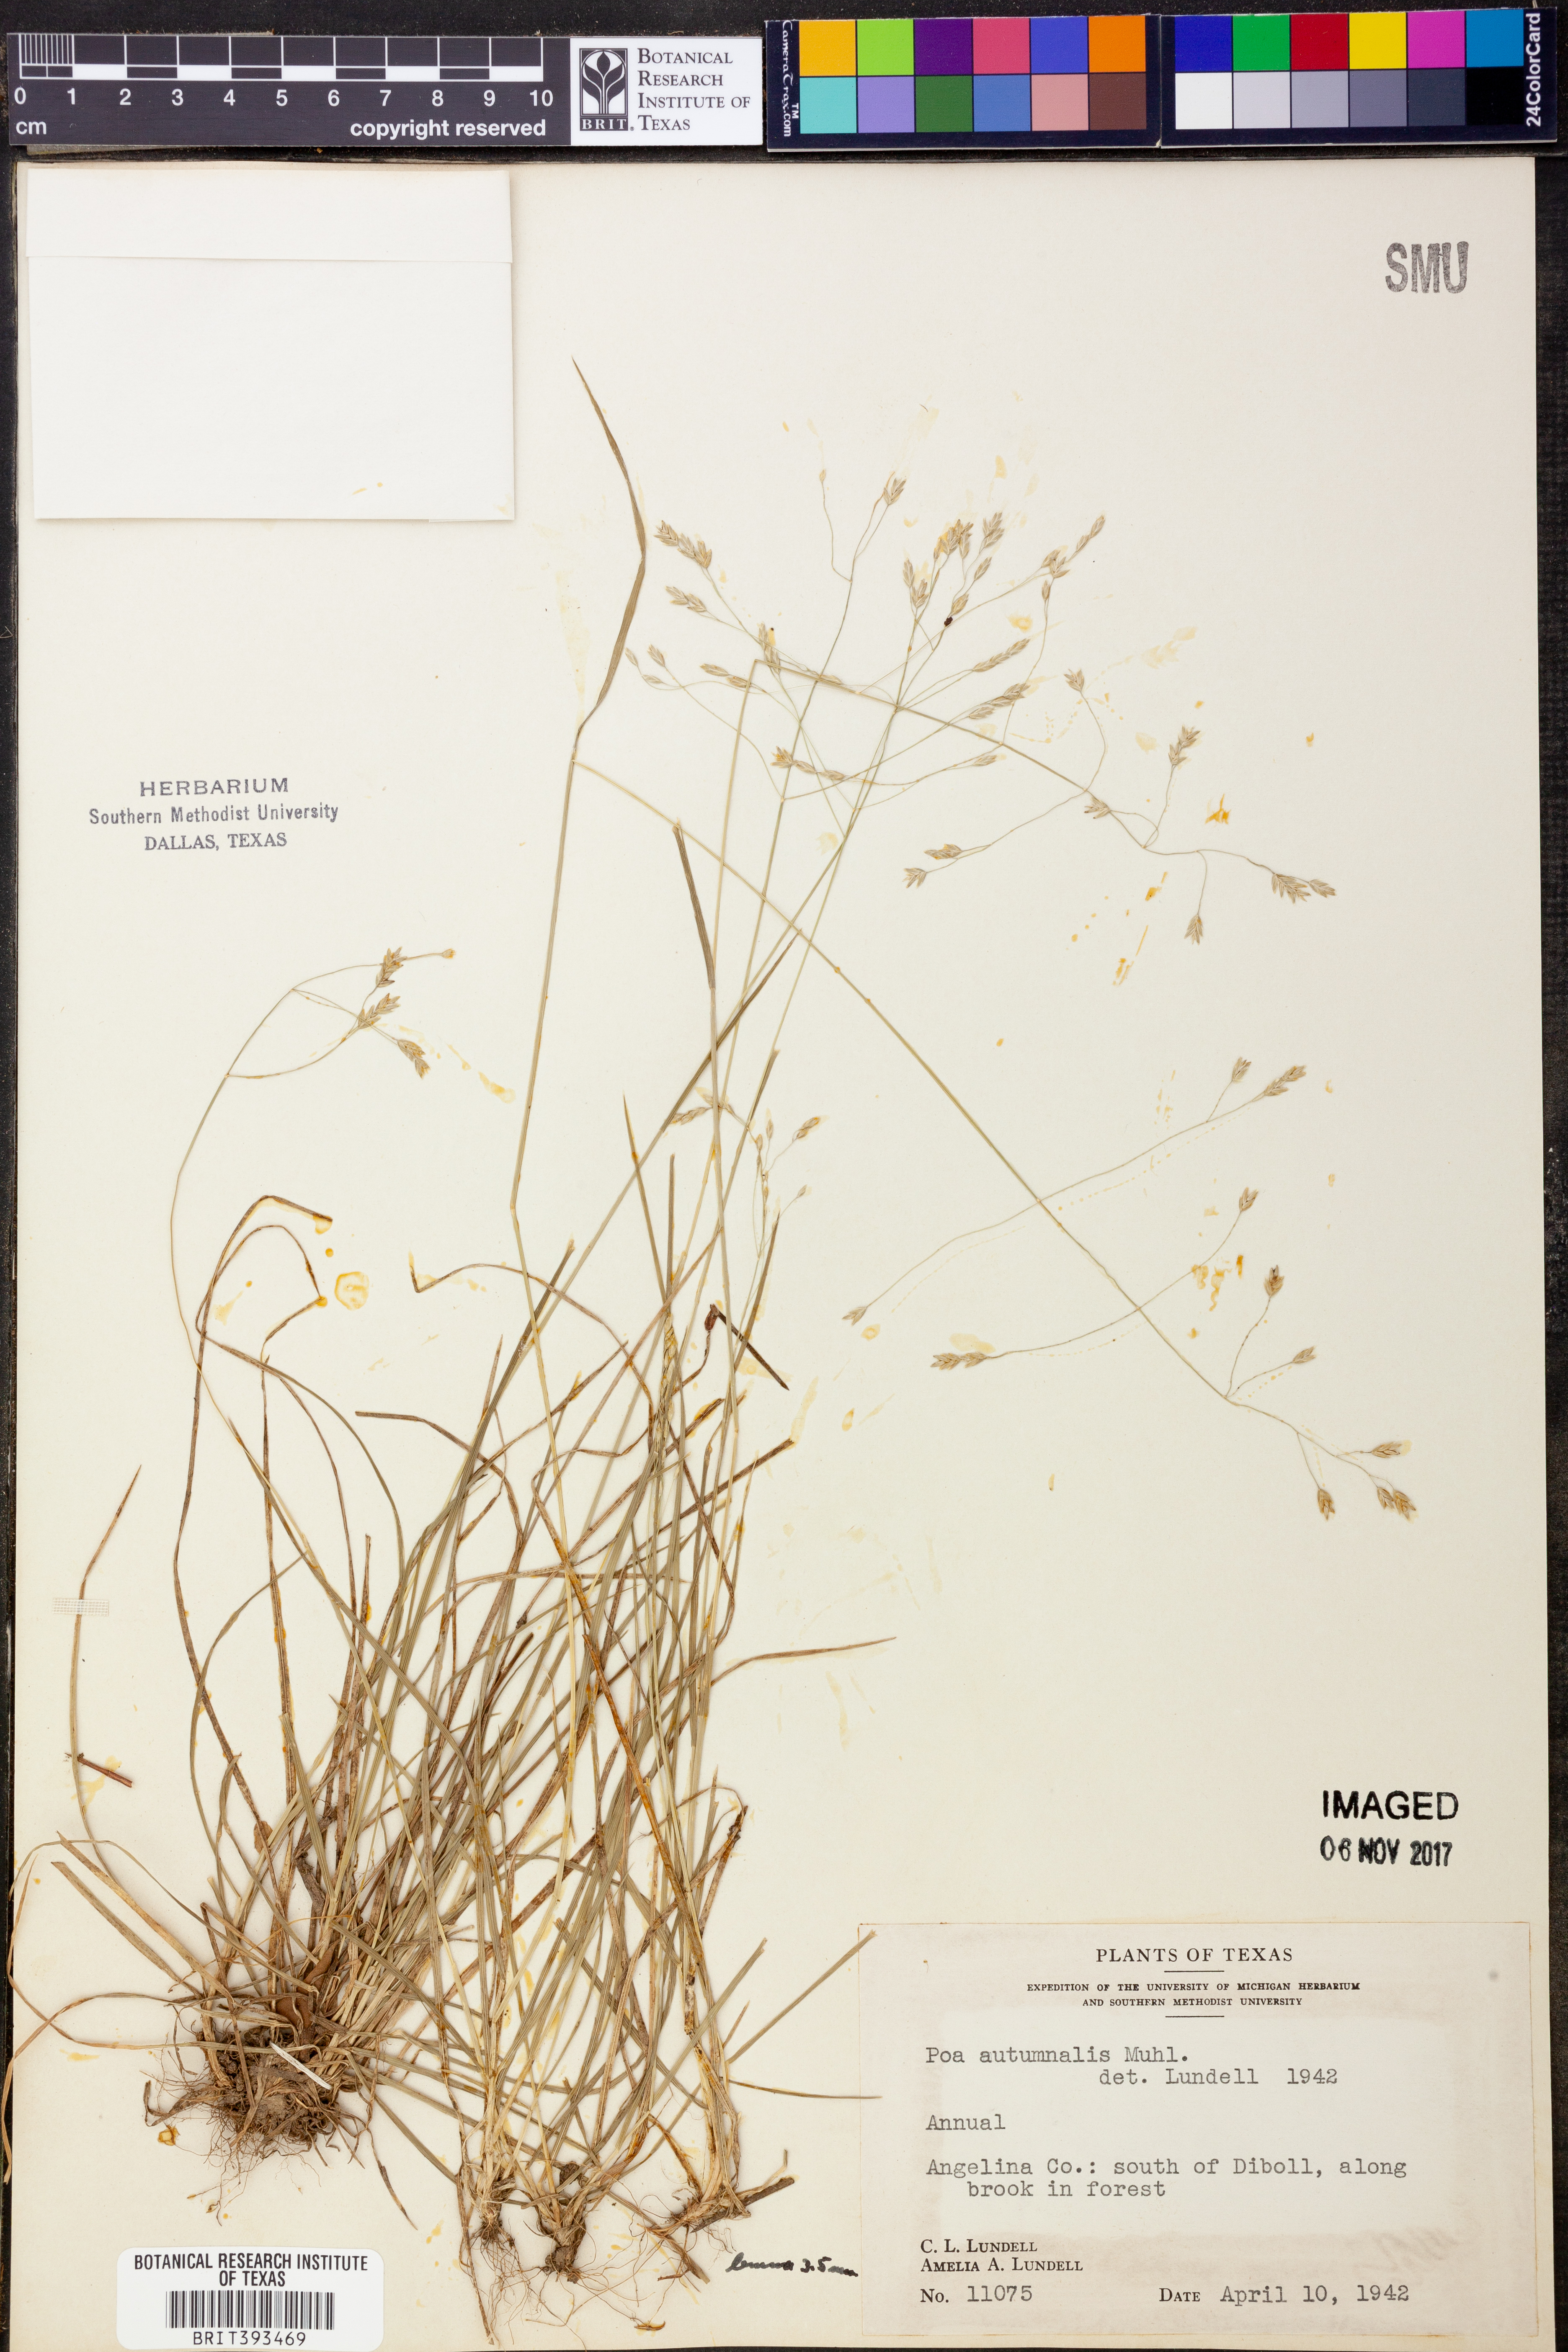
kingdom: Plantae
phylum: Tracheophyta
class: Liliopsida
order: Poales
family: Poaceae
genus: Poa
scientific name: Poa autumnalis
